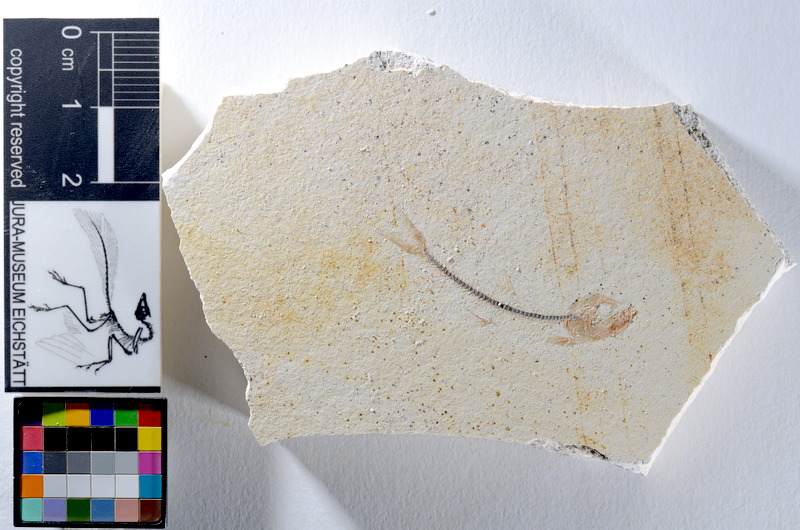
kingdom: Animalia
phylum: Chordata
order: Salmoniformes
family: Orthogonikleithridae
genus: Orthogonikleithrus
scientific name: Orthogonikleithrus hoelli
